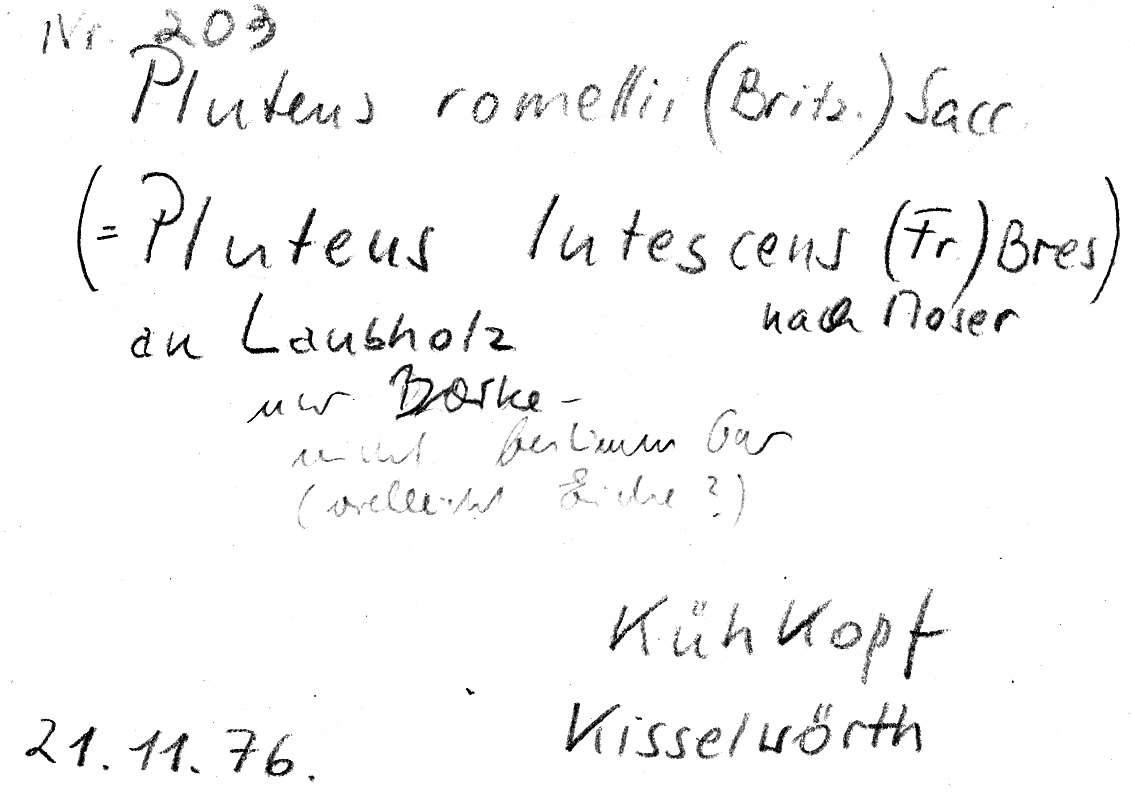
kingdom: Fungi
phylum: Basidiomycota
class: Agaricomycetes
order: Agaricales
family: Pluteaceae
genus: Pluteus
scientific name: Pluteus romellii
